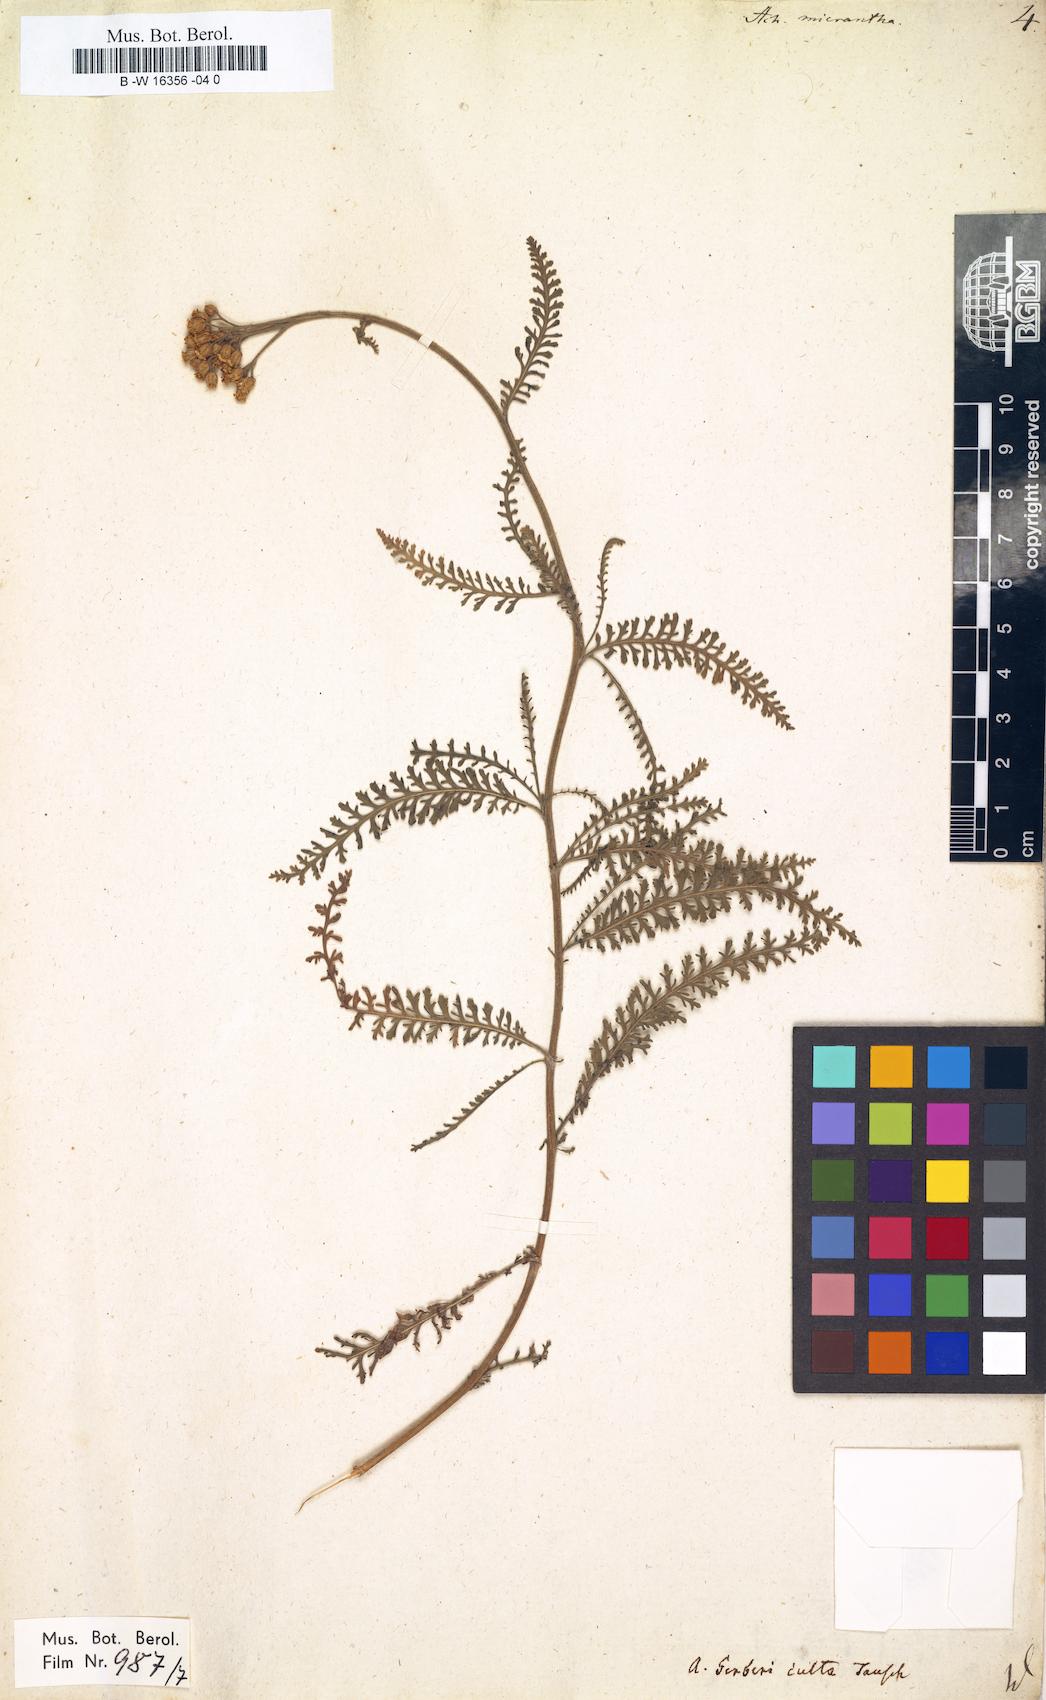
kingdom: Plantae
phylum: Tracheophyta
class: Magnoliopsida
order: Asterales
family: Asteraceae
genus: Achillea
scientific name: Achillea arabica
